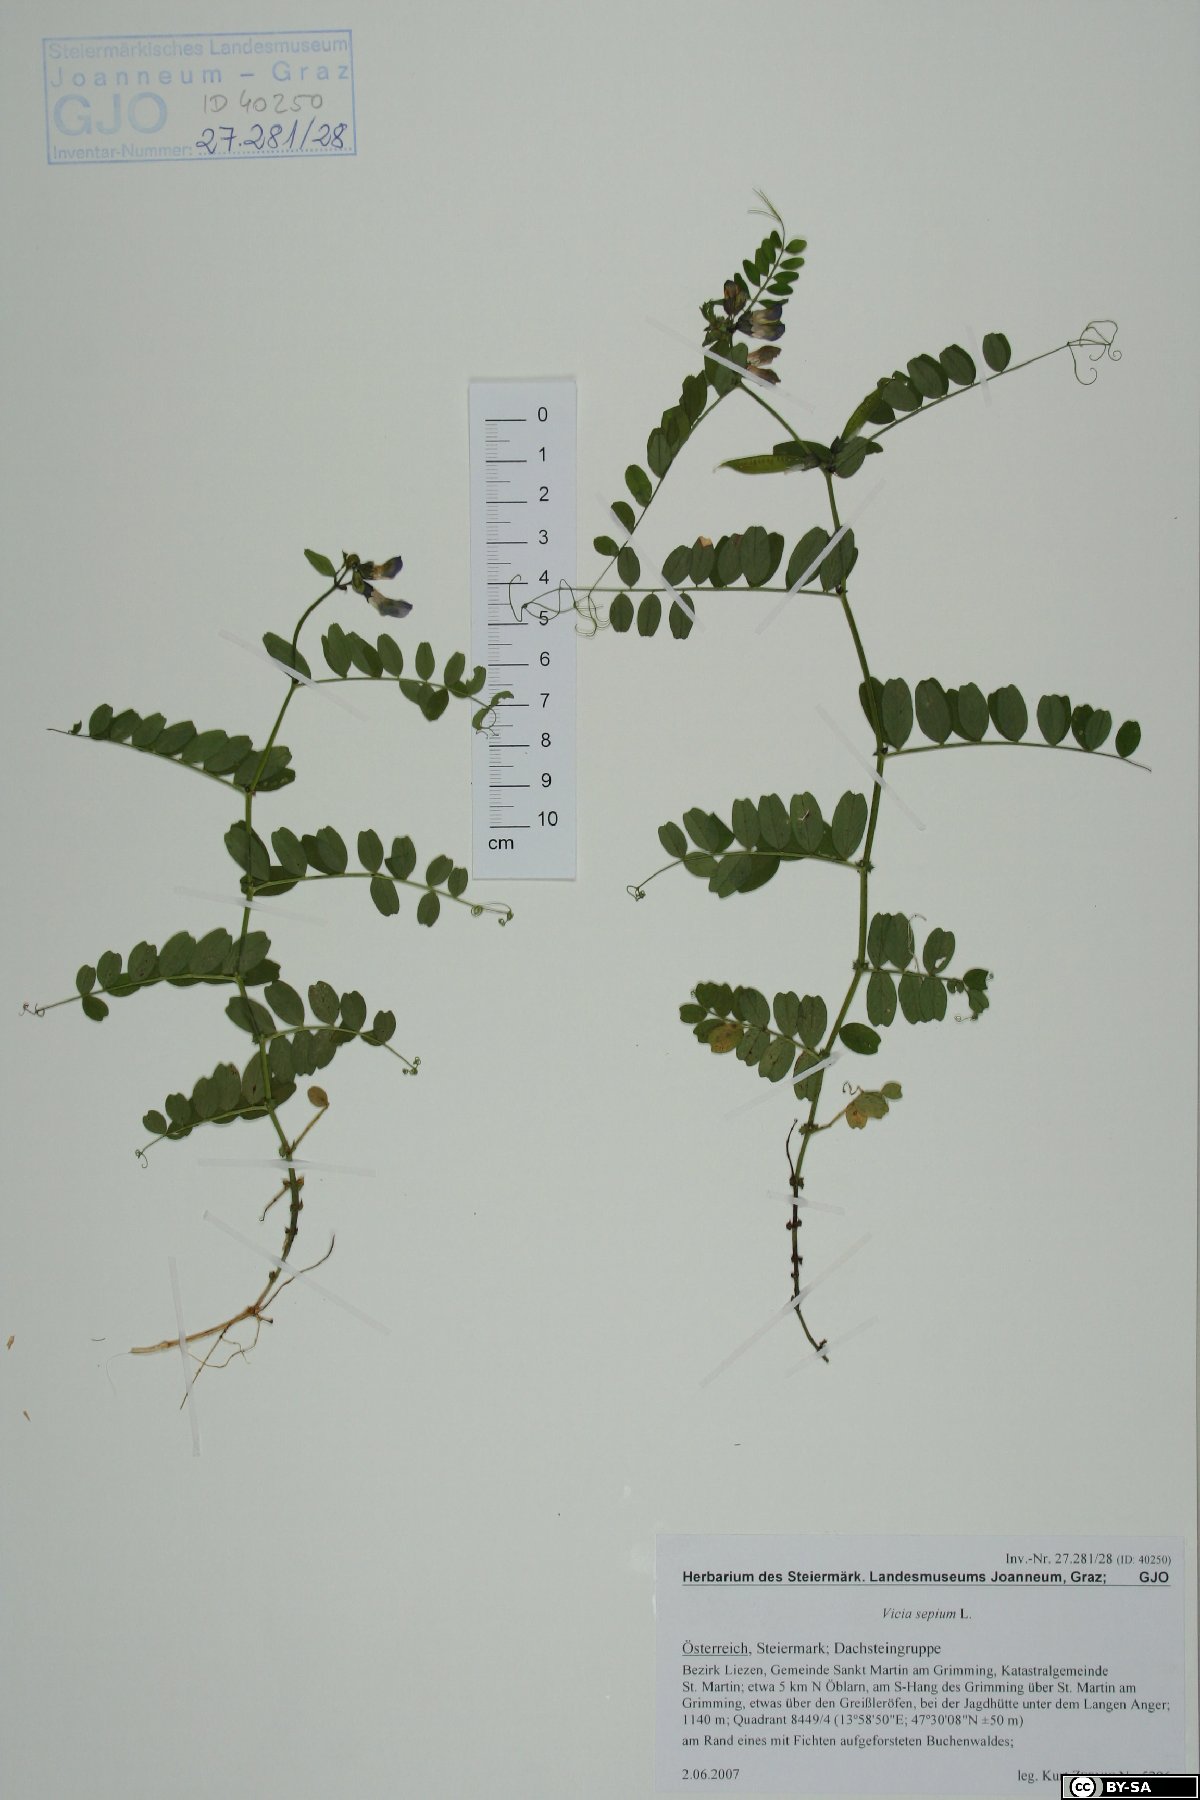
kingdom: Plantae
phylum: Tracheophyta
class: Magnoliopsida
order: Fabales
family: Fabaceae
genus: Vicia
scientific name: Vicia sepium
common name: Bush vetch
